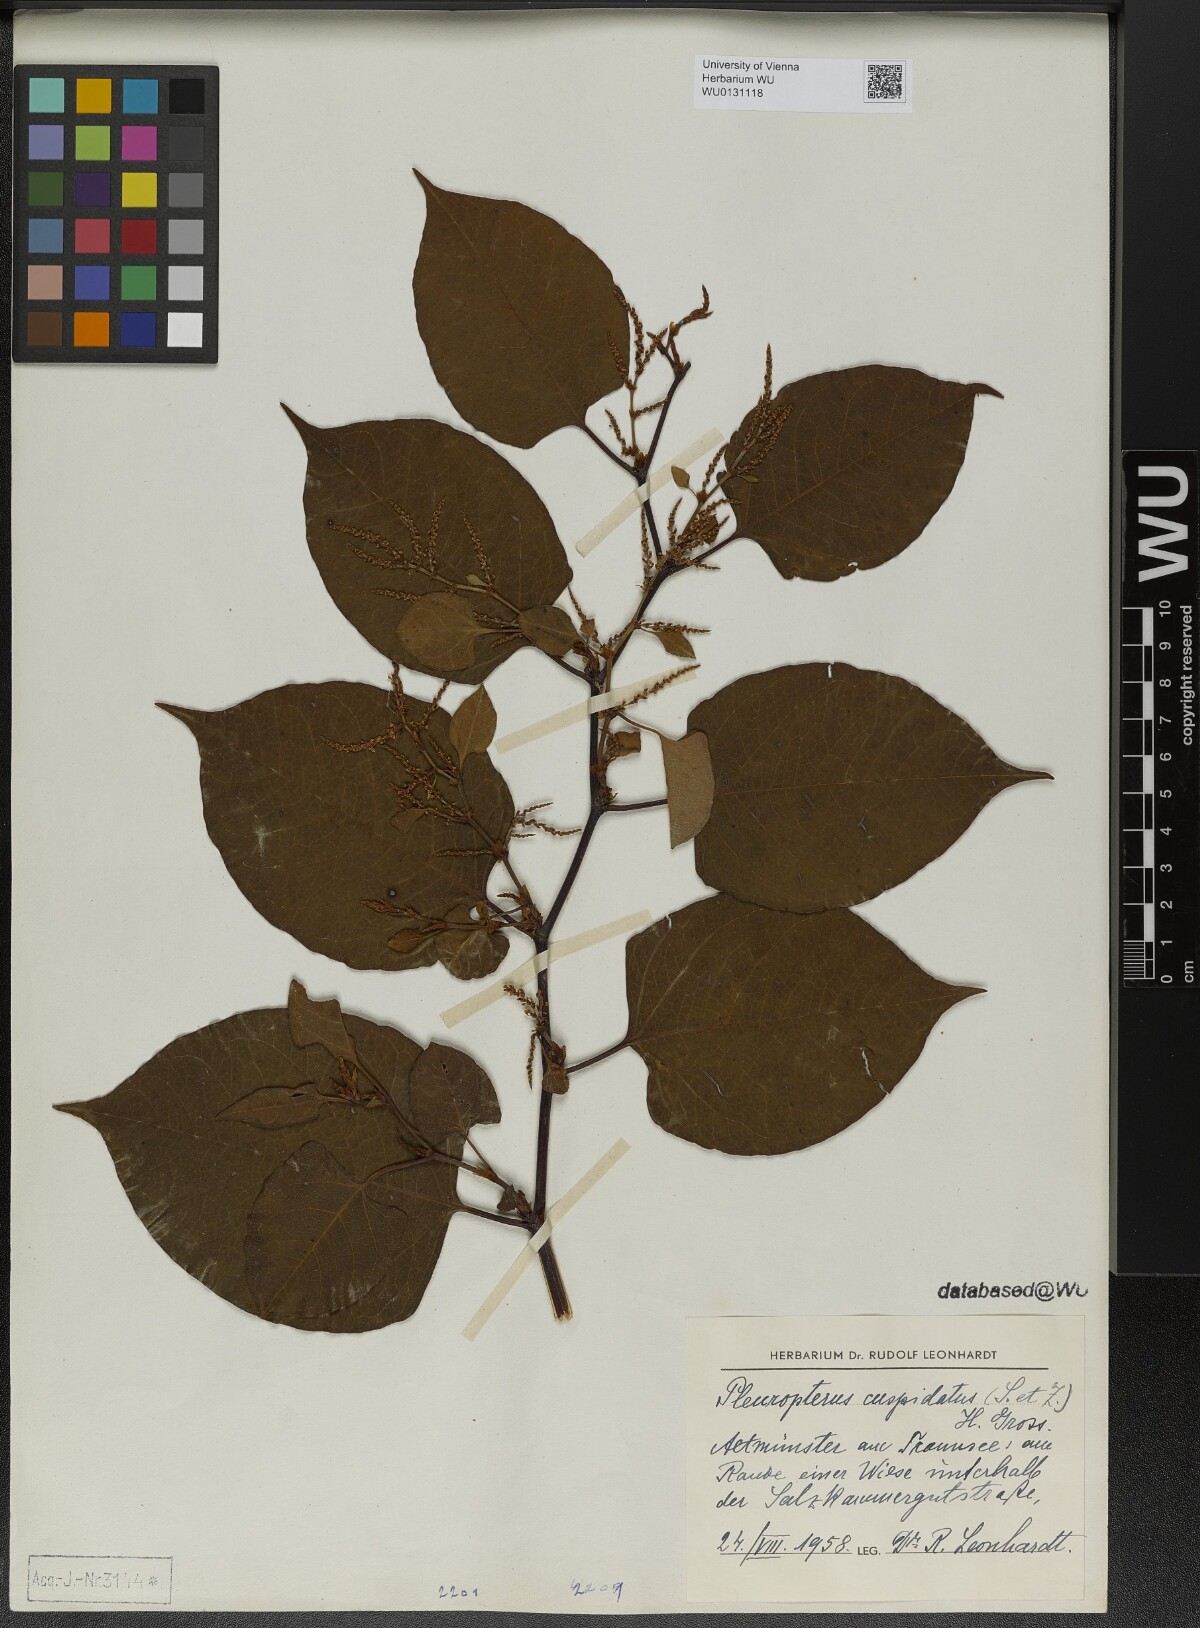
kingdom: Plantae
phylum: Tracheophyta
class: Magnoliopsida
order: Caryophyllales
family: Polygonaceae
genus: Reynoutria
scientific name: Reynoutria japonica
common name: Japanese knotweed
